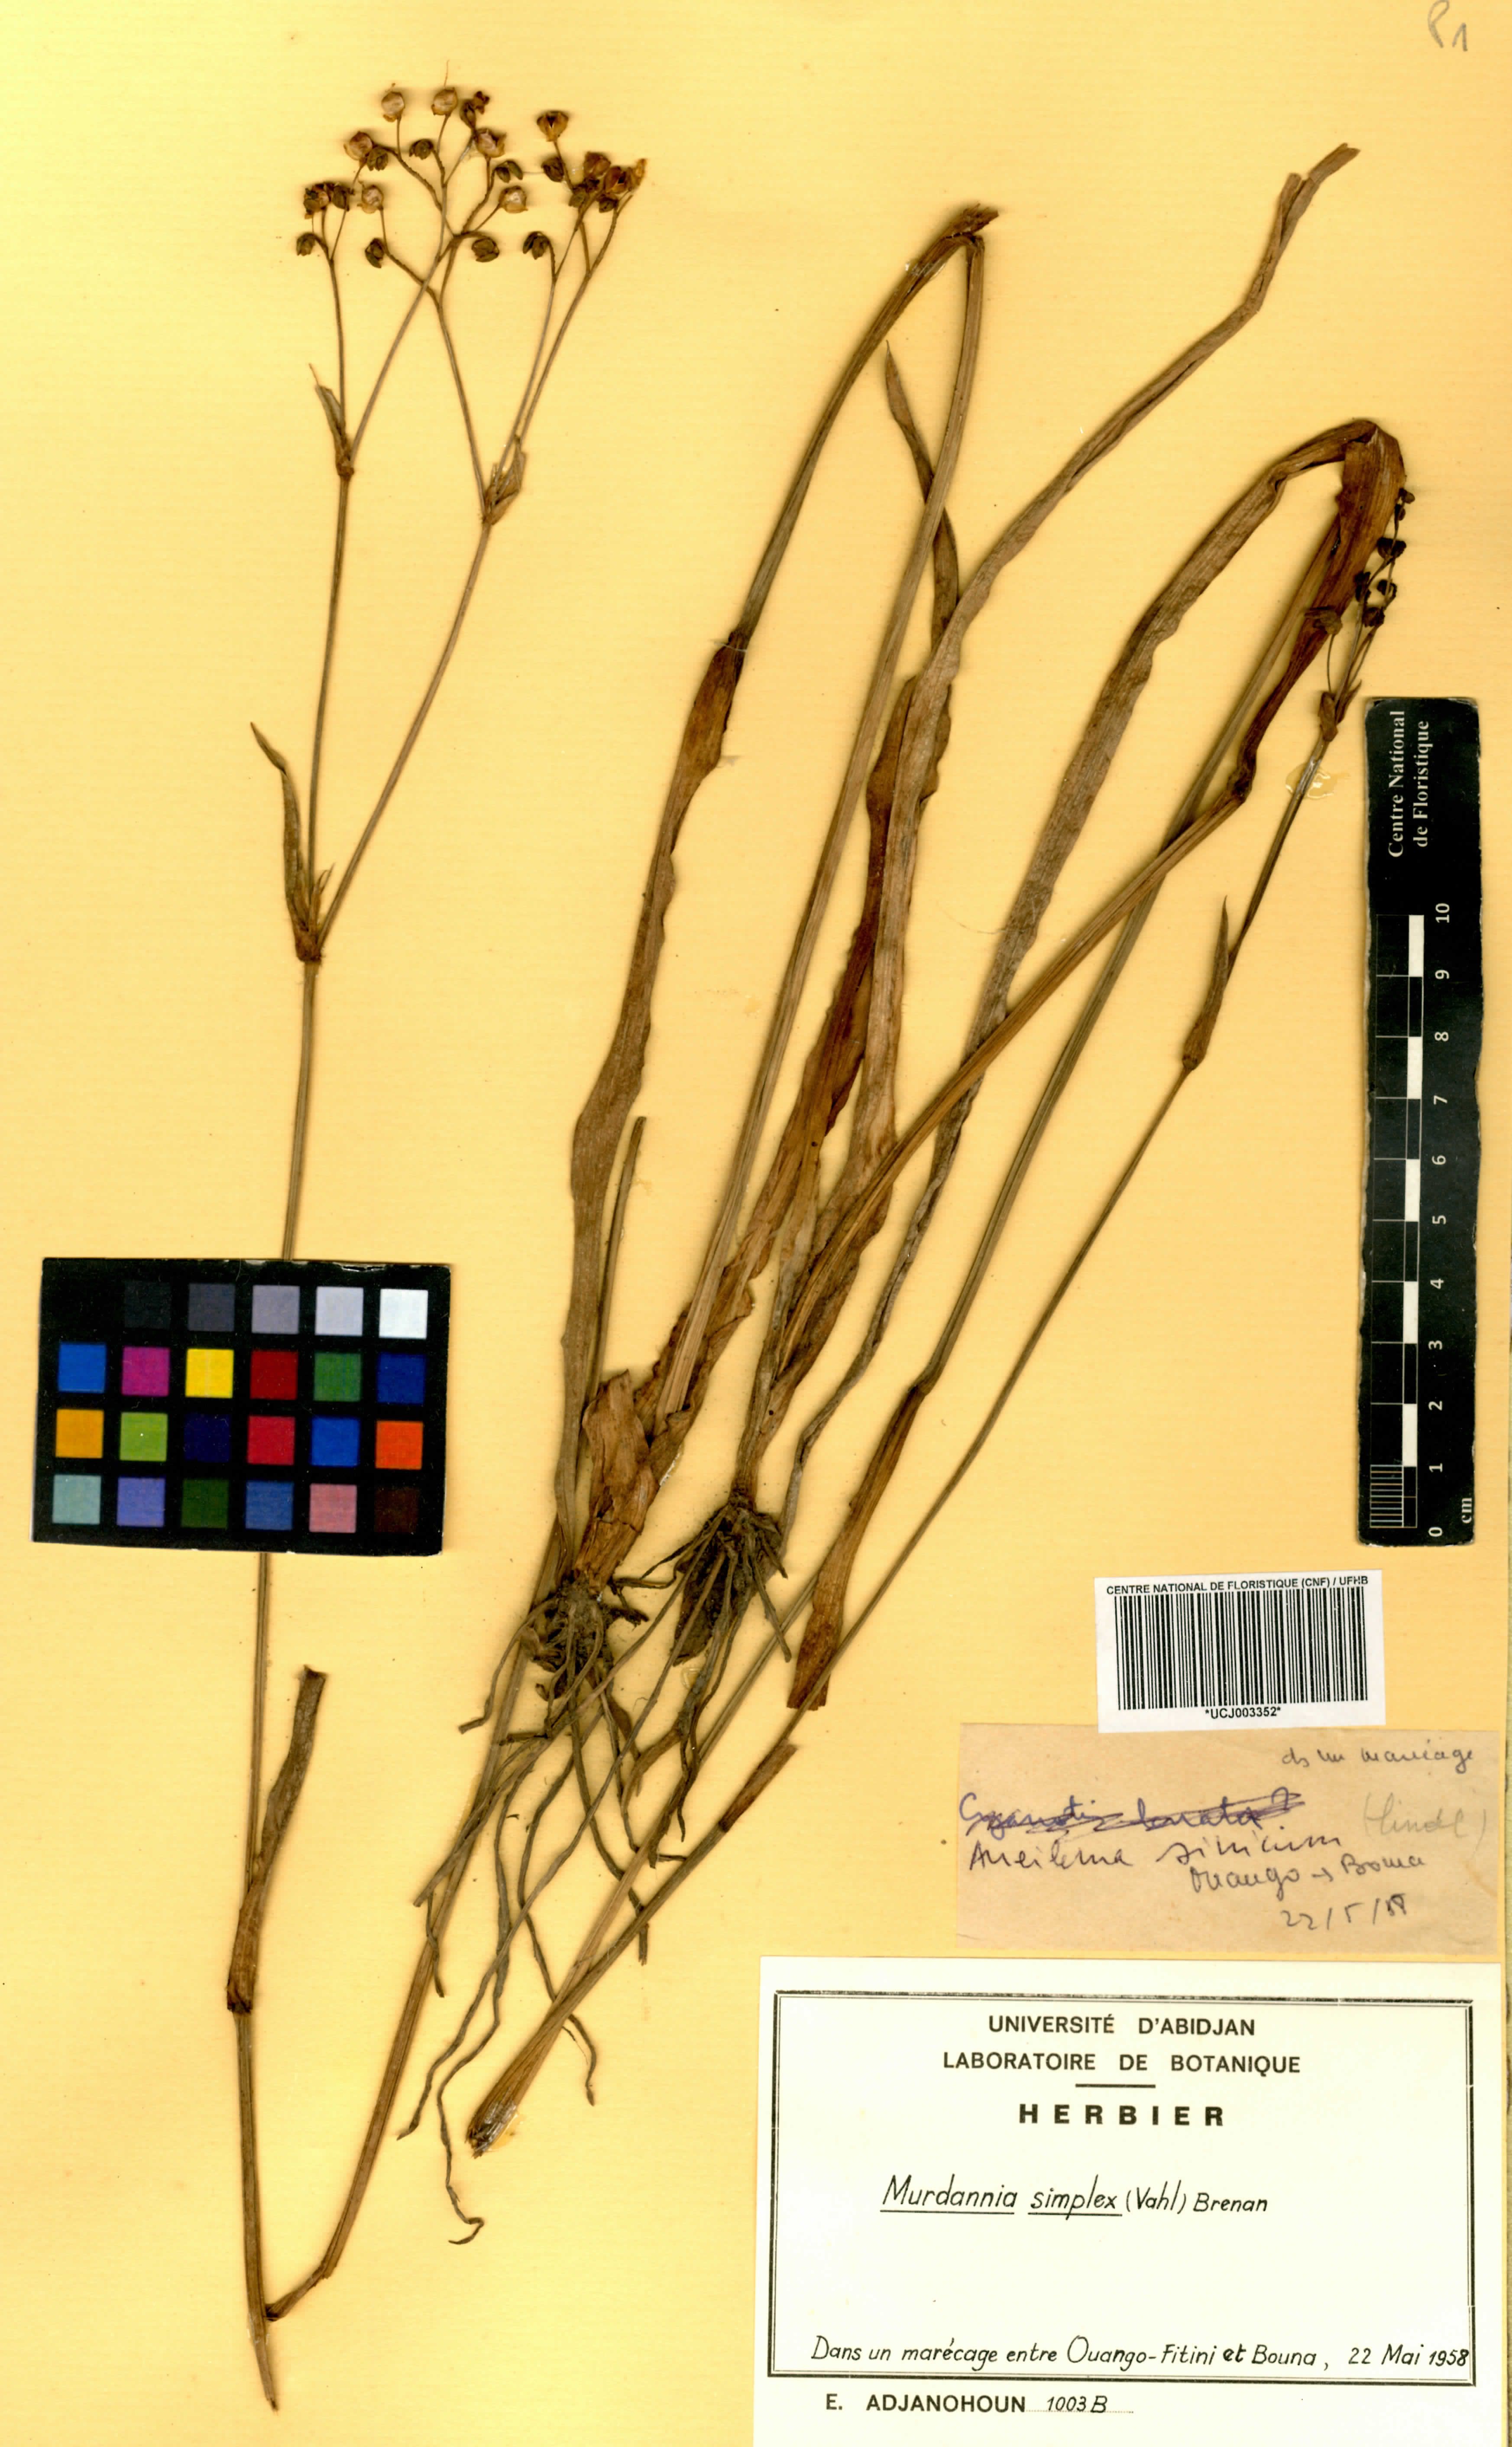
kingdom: Plantae
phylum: Tracheophyta
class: Liliopsida
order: Commelinales
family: Commelinaceae
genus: Murdannia
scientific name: Murdannia simplex
